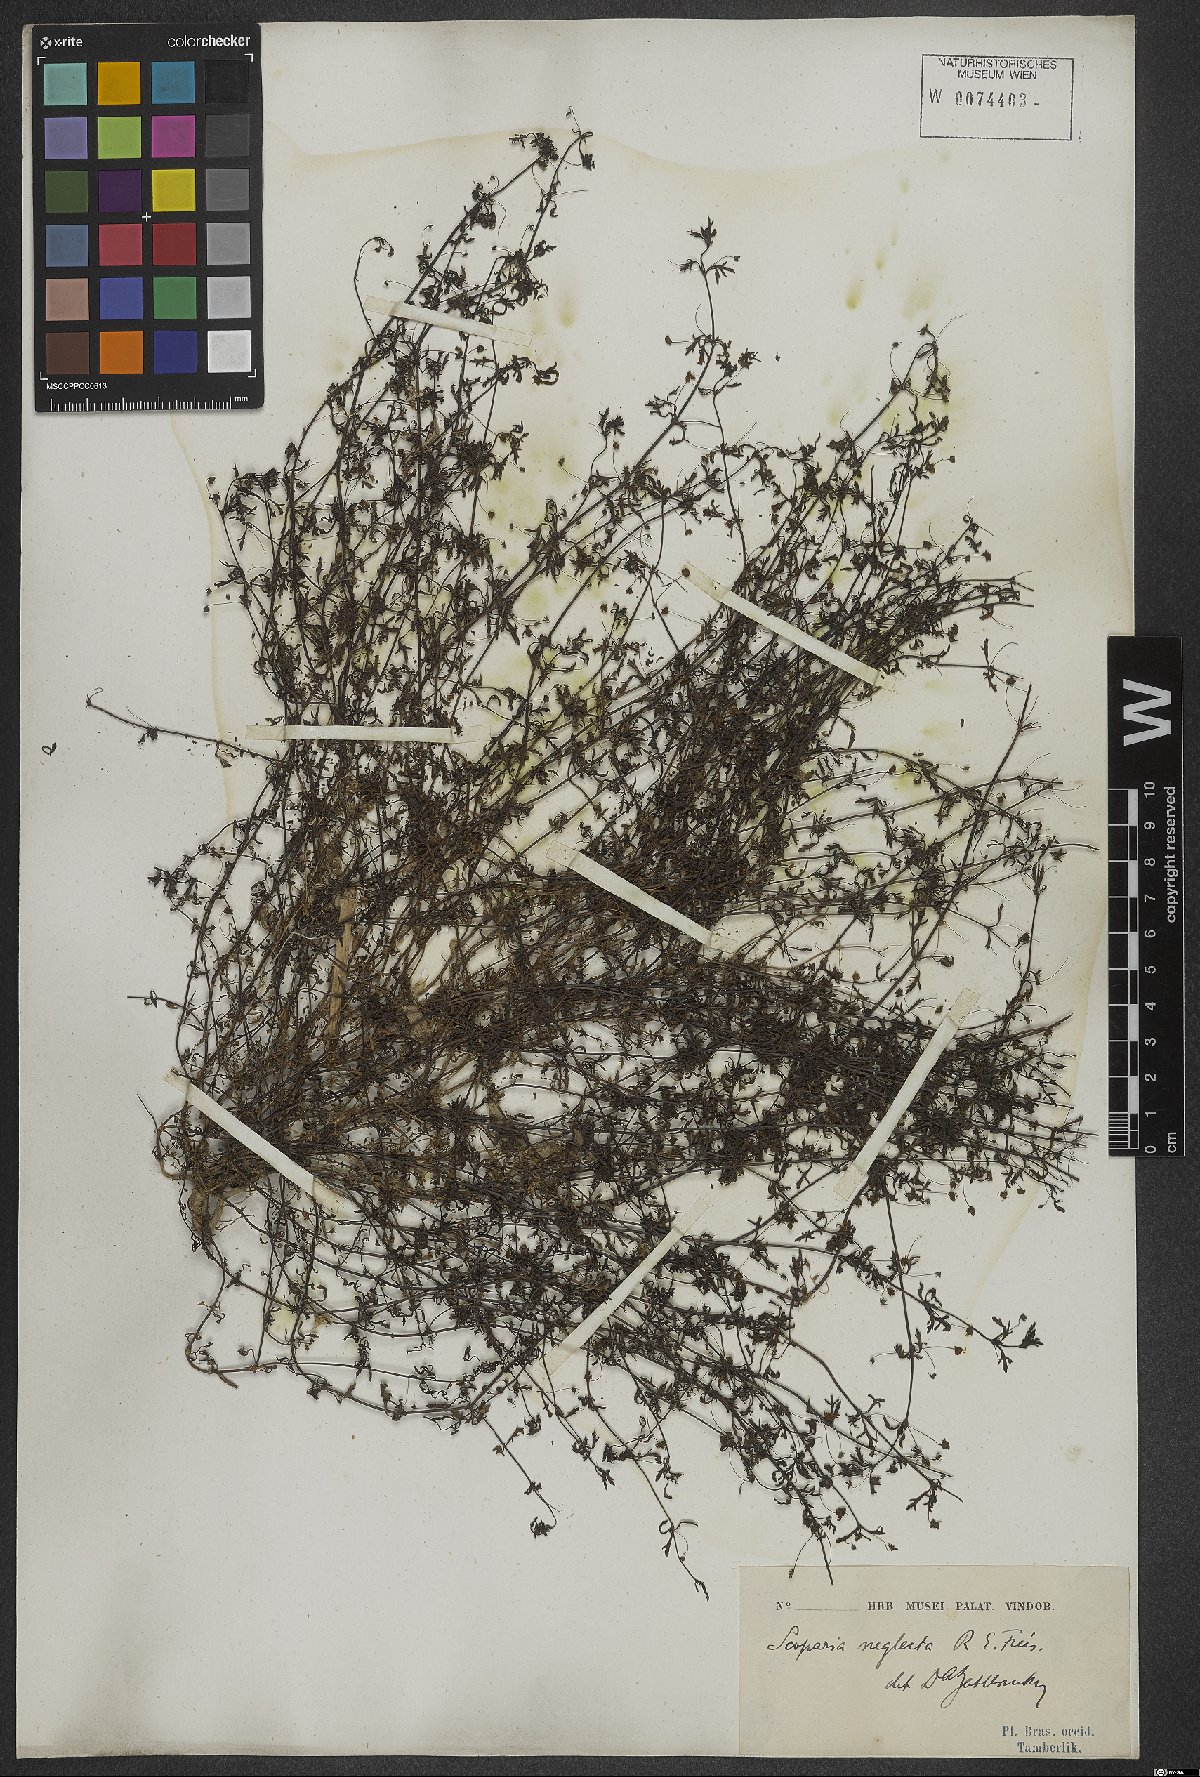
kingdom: Plantae
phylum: Tracheophyta
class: Magnoliopsida
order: Lamiales
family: Plantaginaceae
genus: Scoparia
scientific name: Scoparia montevidensis
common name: Broomwort
